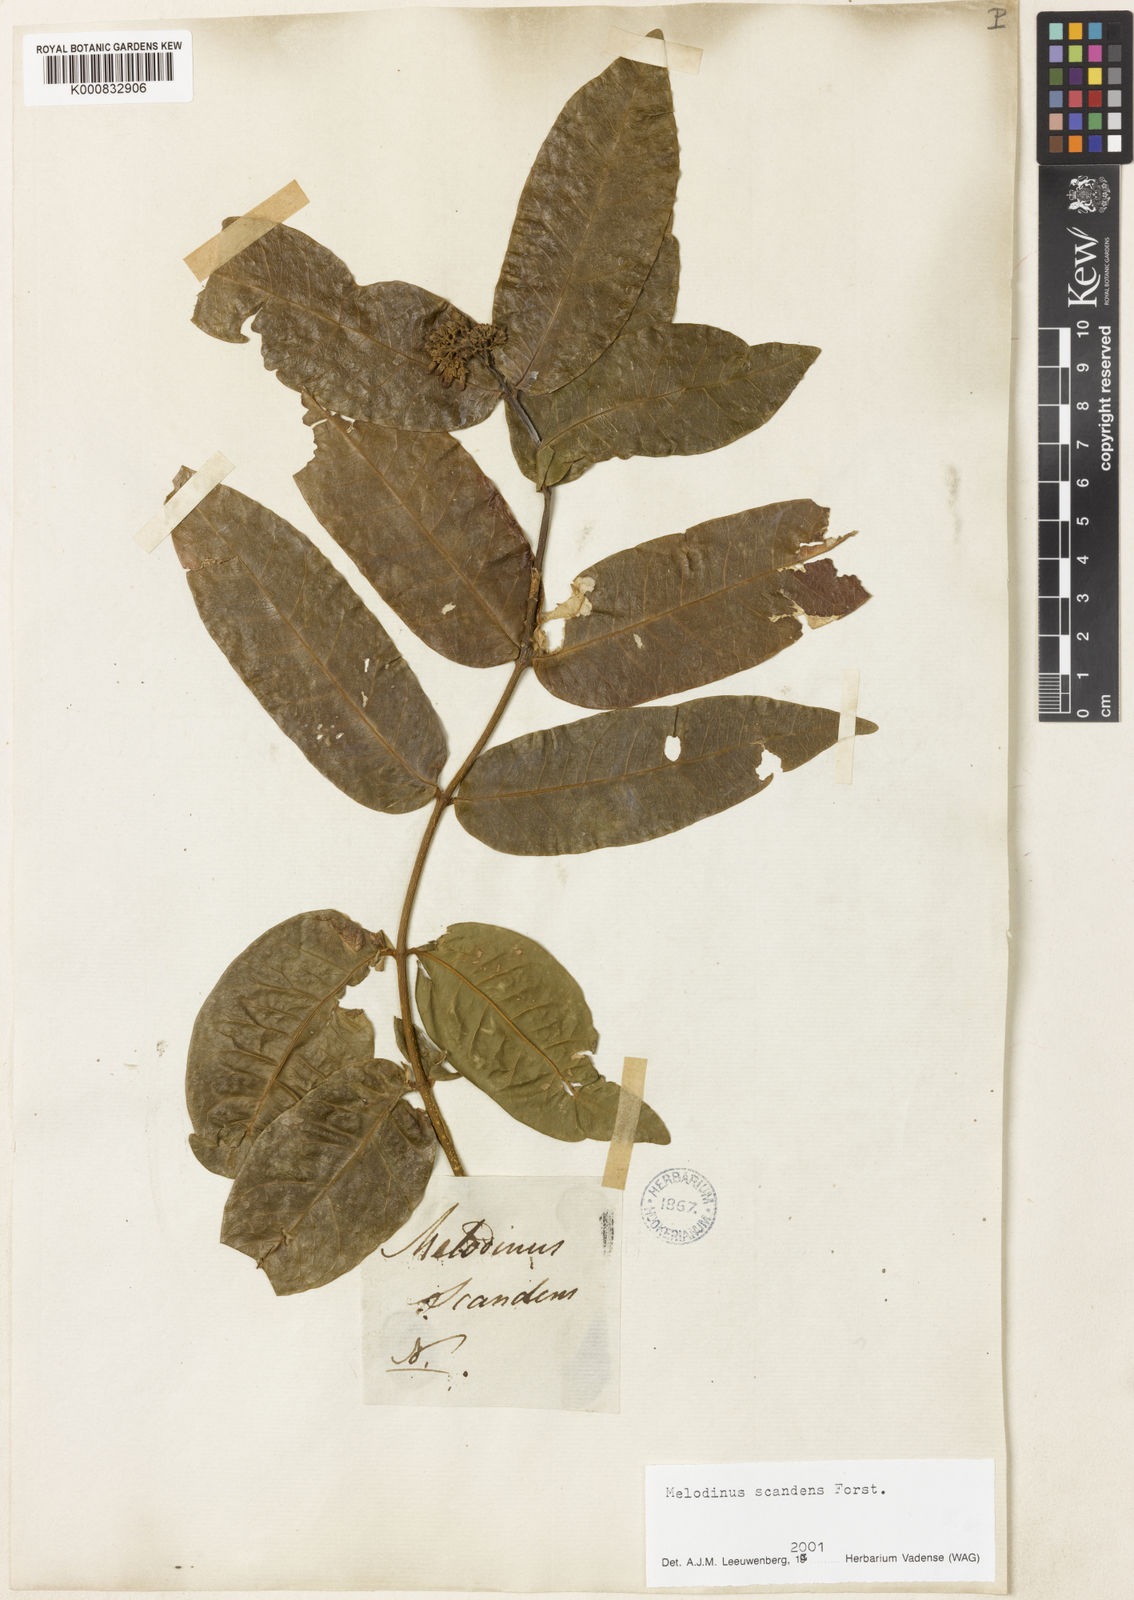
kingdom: Plantae
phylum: Tracheophyta
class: Magnoliopsida
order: Gentianales
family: Apocynaceae
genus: Melodinus
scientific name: Melodinus scandens
